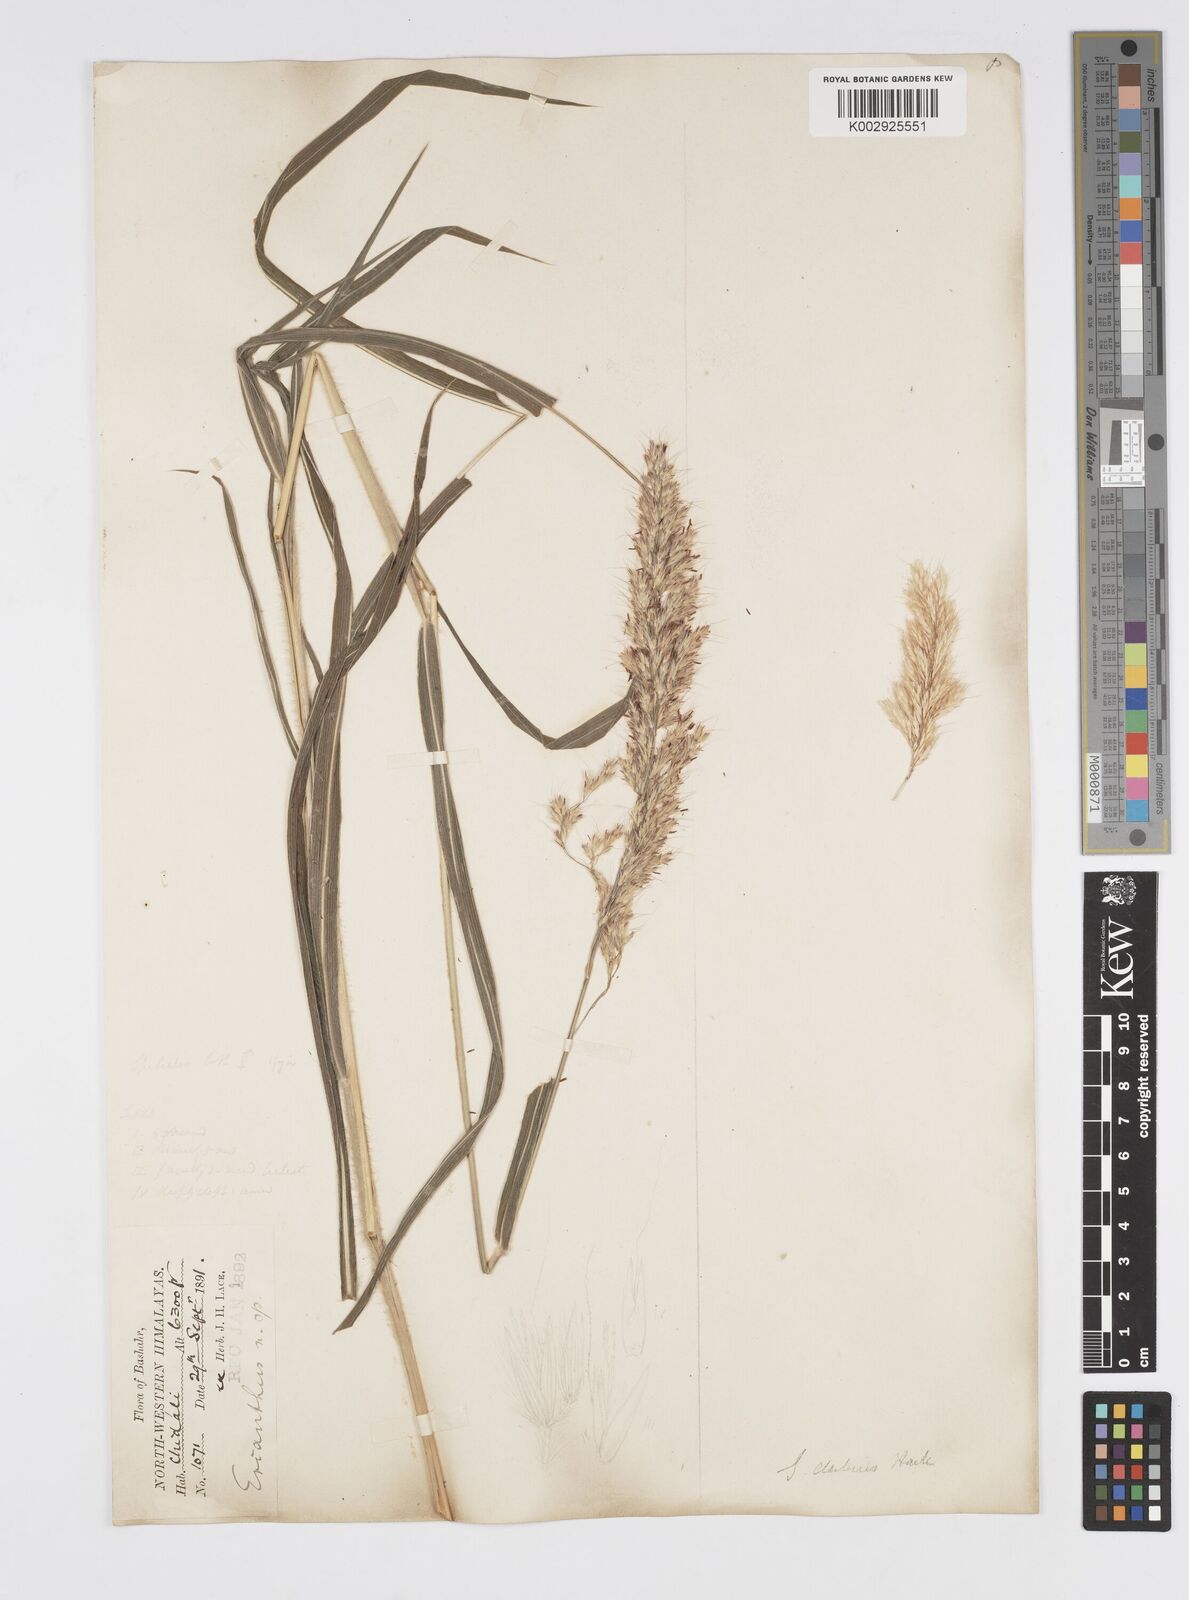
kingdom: Plantae
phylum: Tracheophyta
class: Liliopsida
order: Poales
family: Poaceae
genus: Spodiopogon
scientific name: Spodiopogon cotulifer
